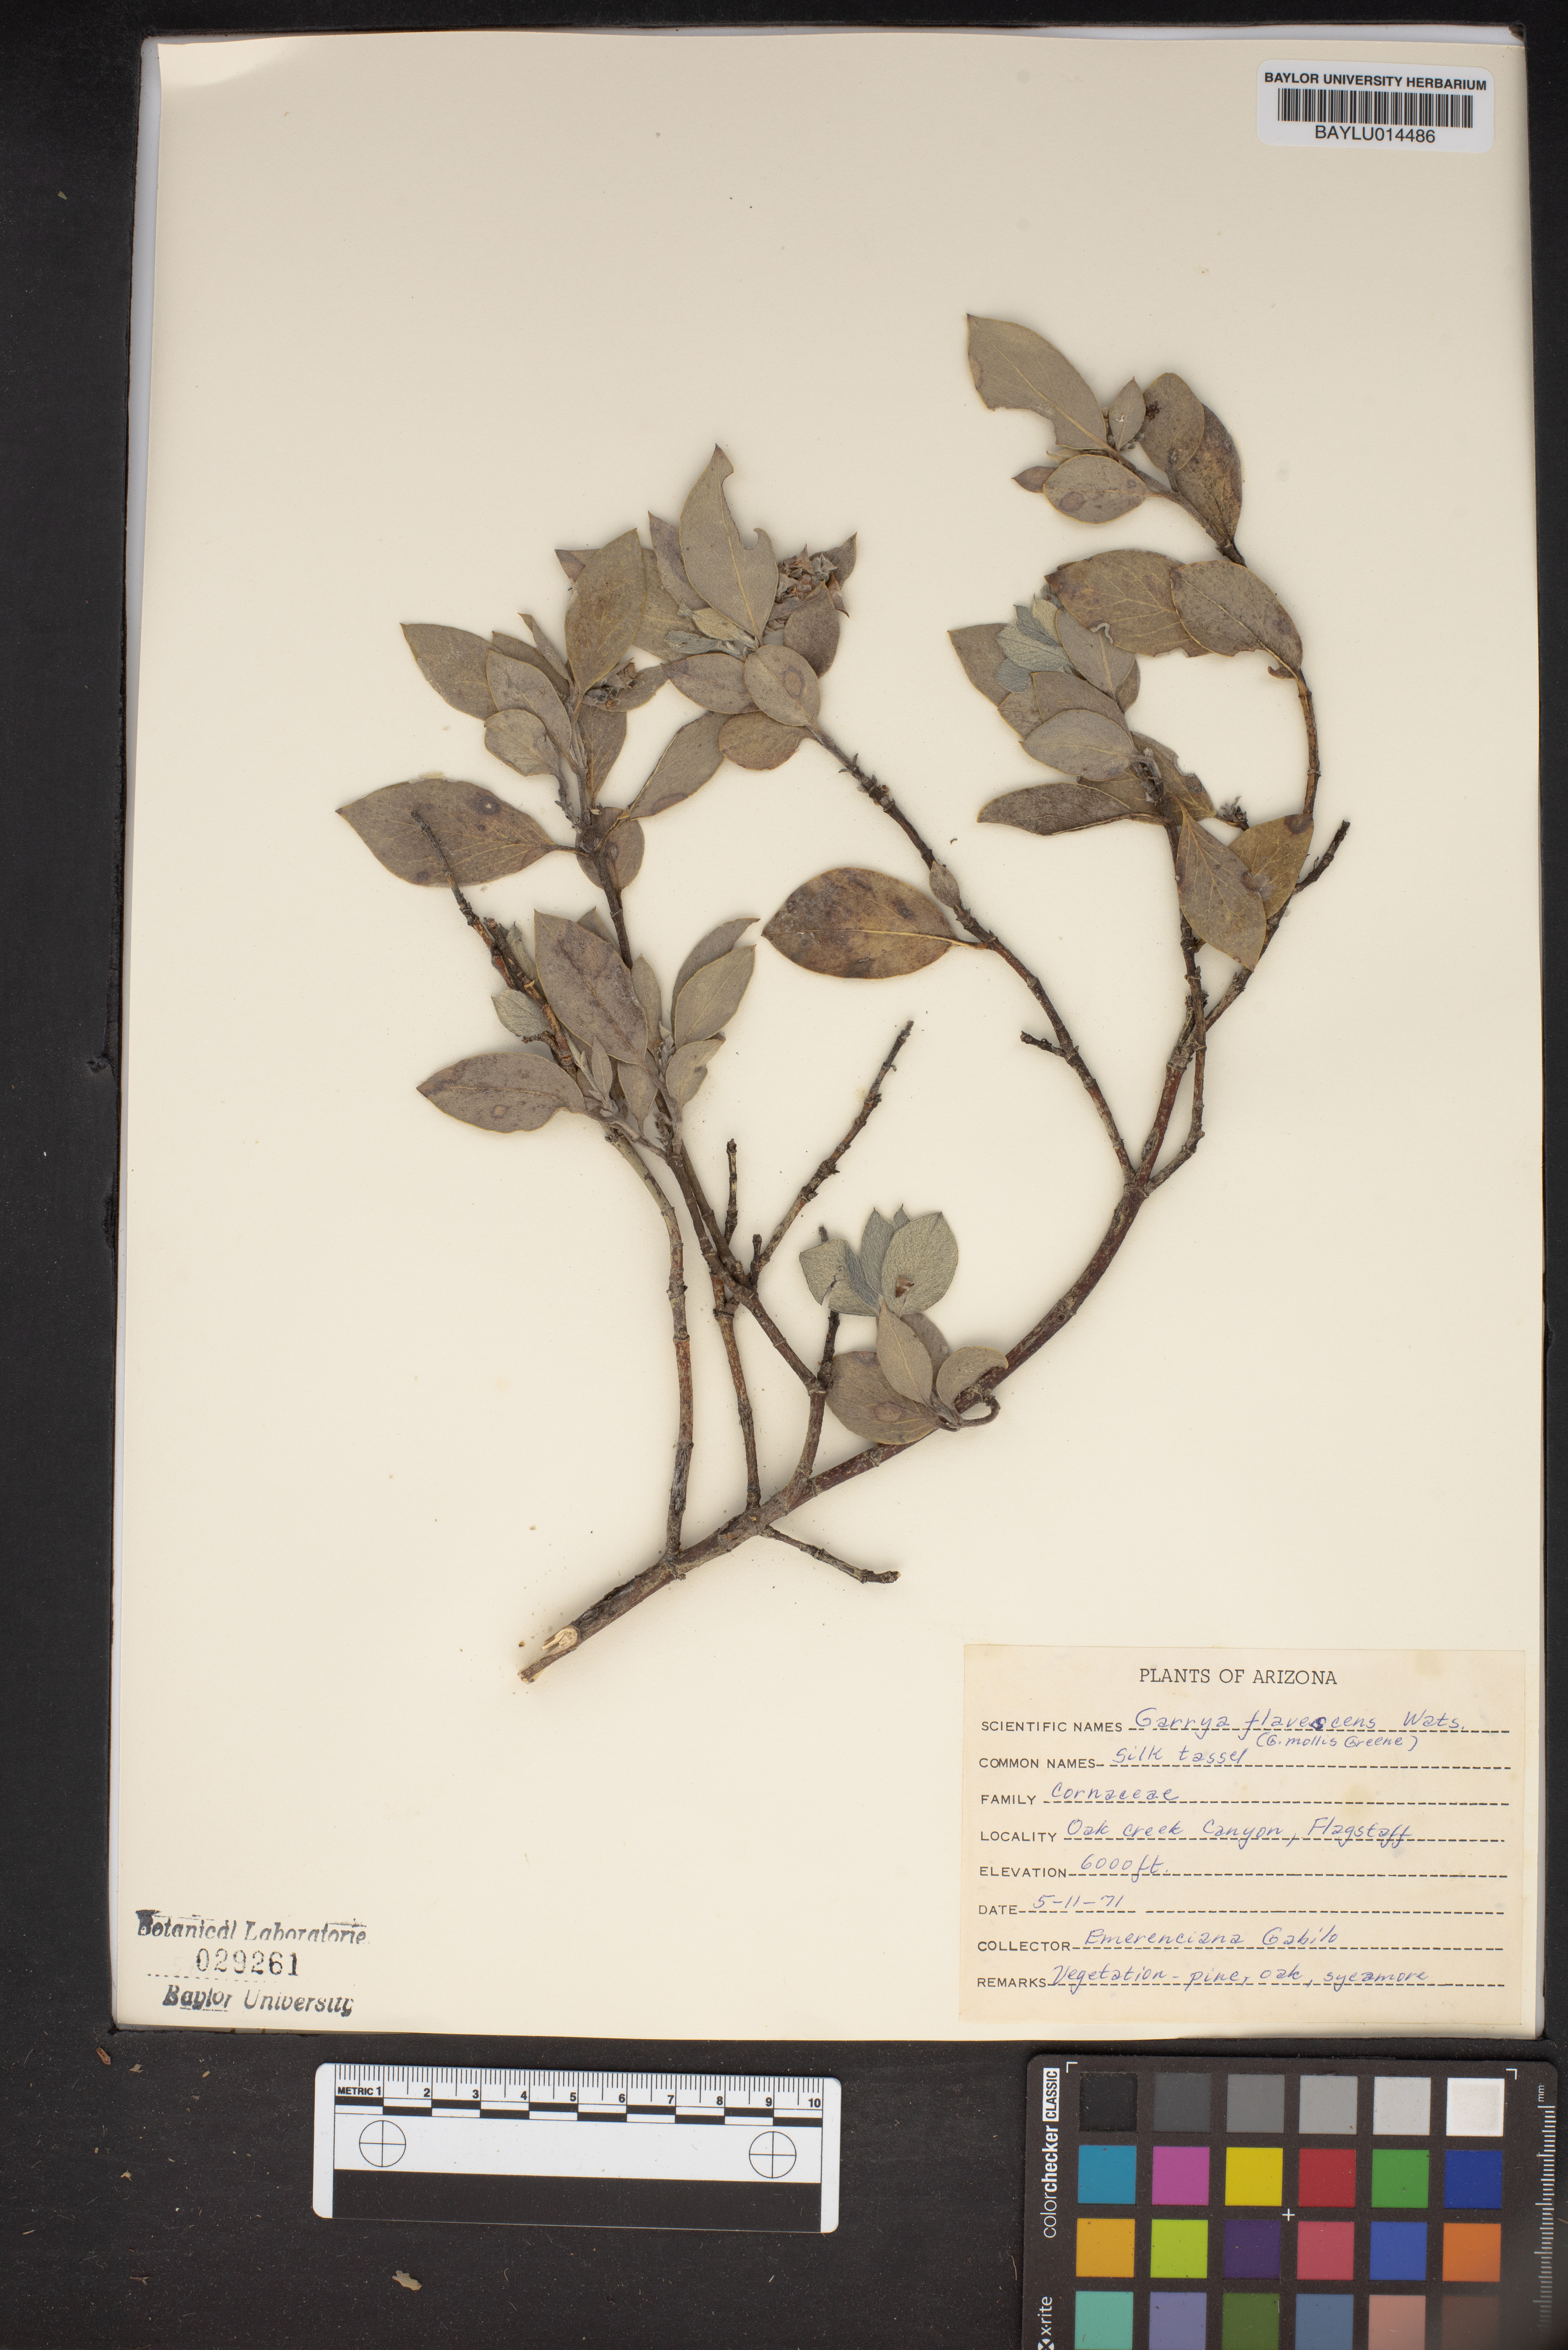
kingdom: Plantae
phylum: Tracheophyta
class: Magnoliopsida
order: Garryales
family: Garryaceae
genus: Garrya
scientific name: Garrya flavescens
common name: Ashy silk-tassel
